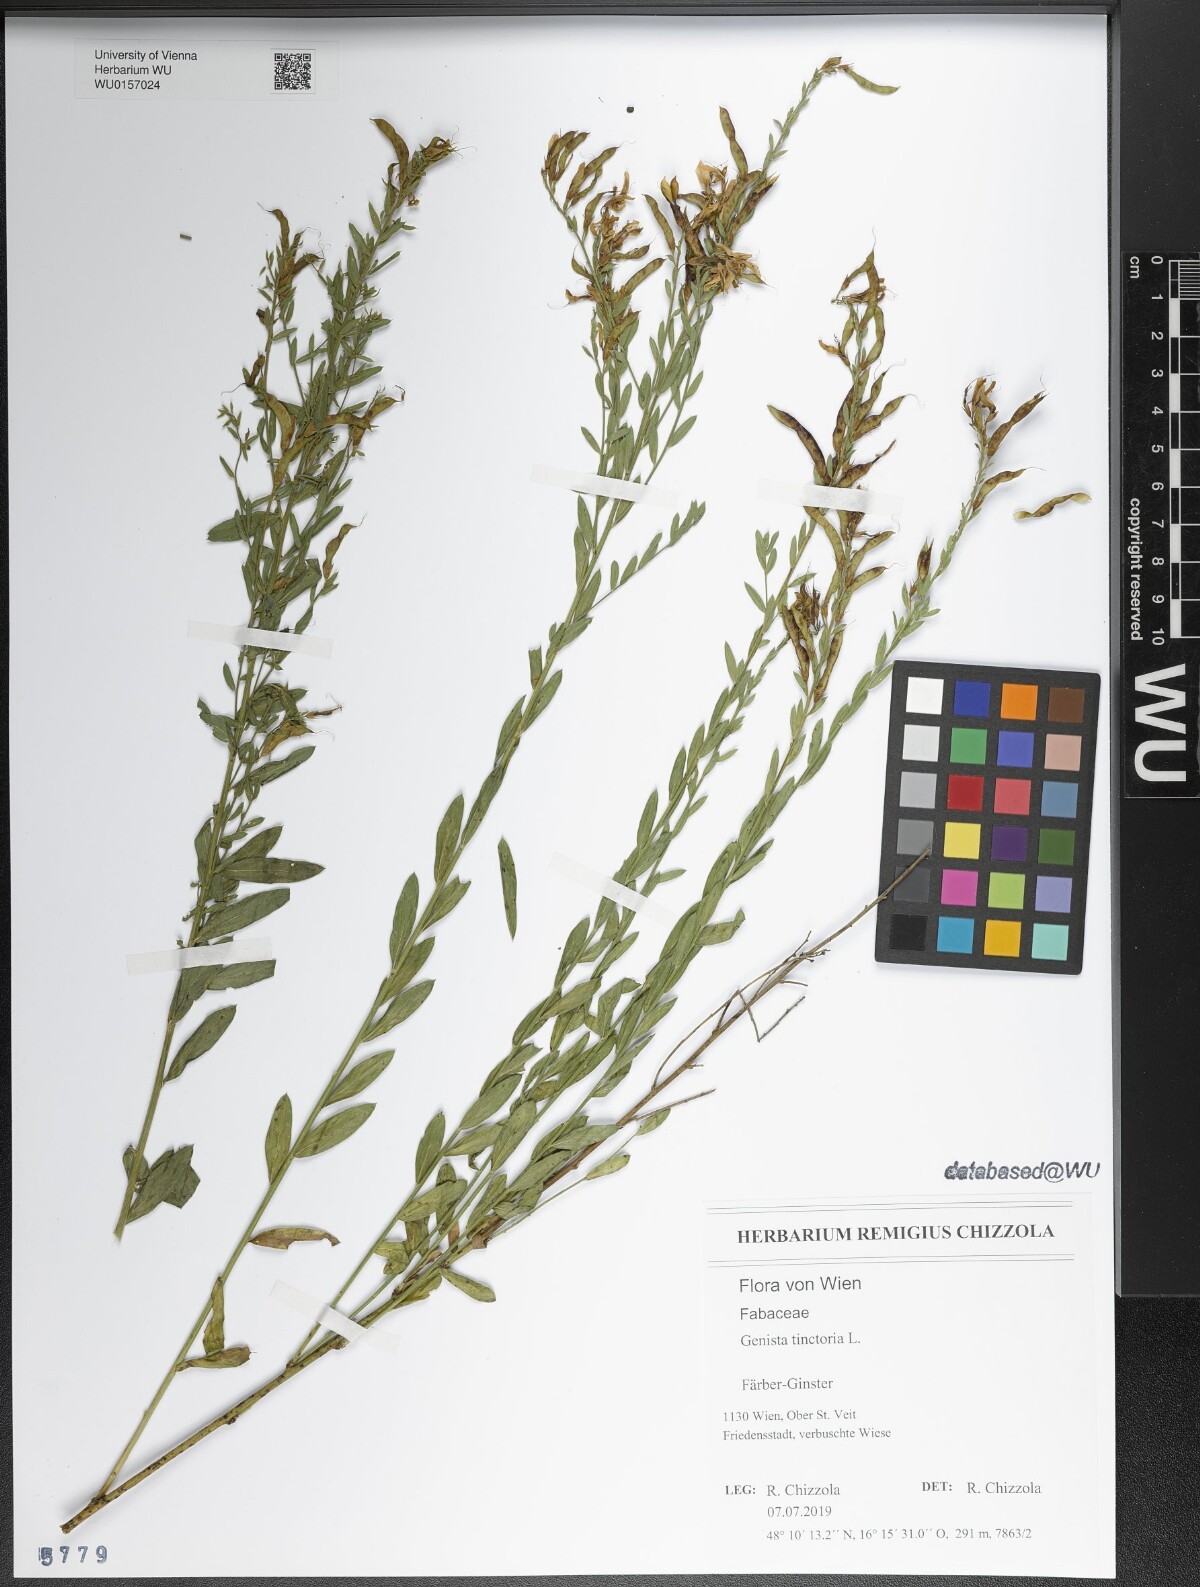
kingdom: Plantae
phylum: Tracheophyta
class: Magnoliopsida
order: Fabales
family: Fabaceae
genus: Genista
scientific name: Genista tinctoria
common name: Dyer's greenweed
